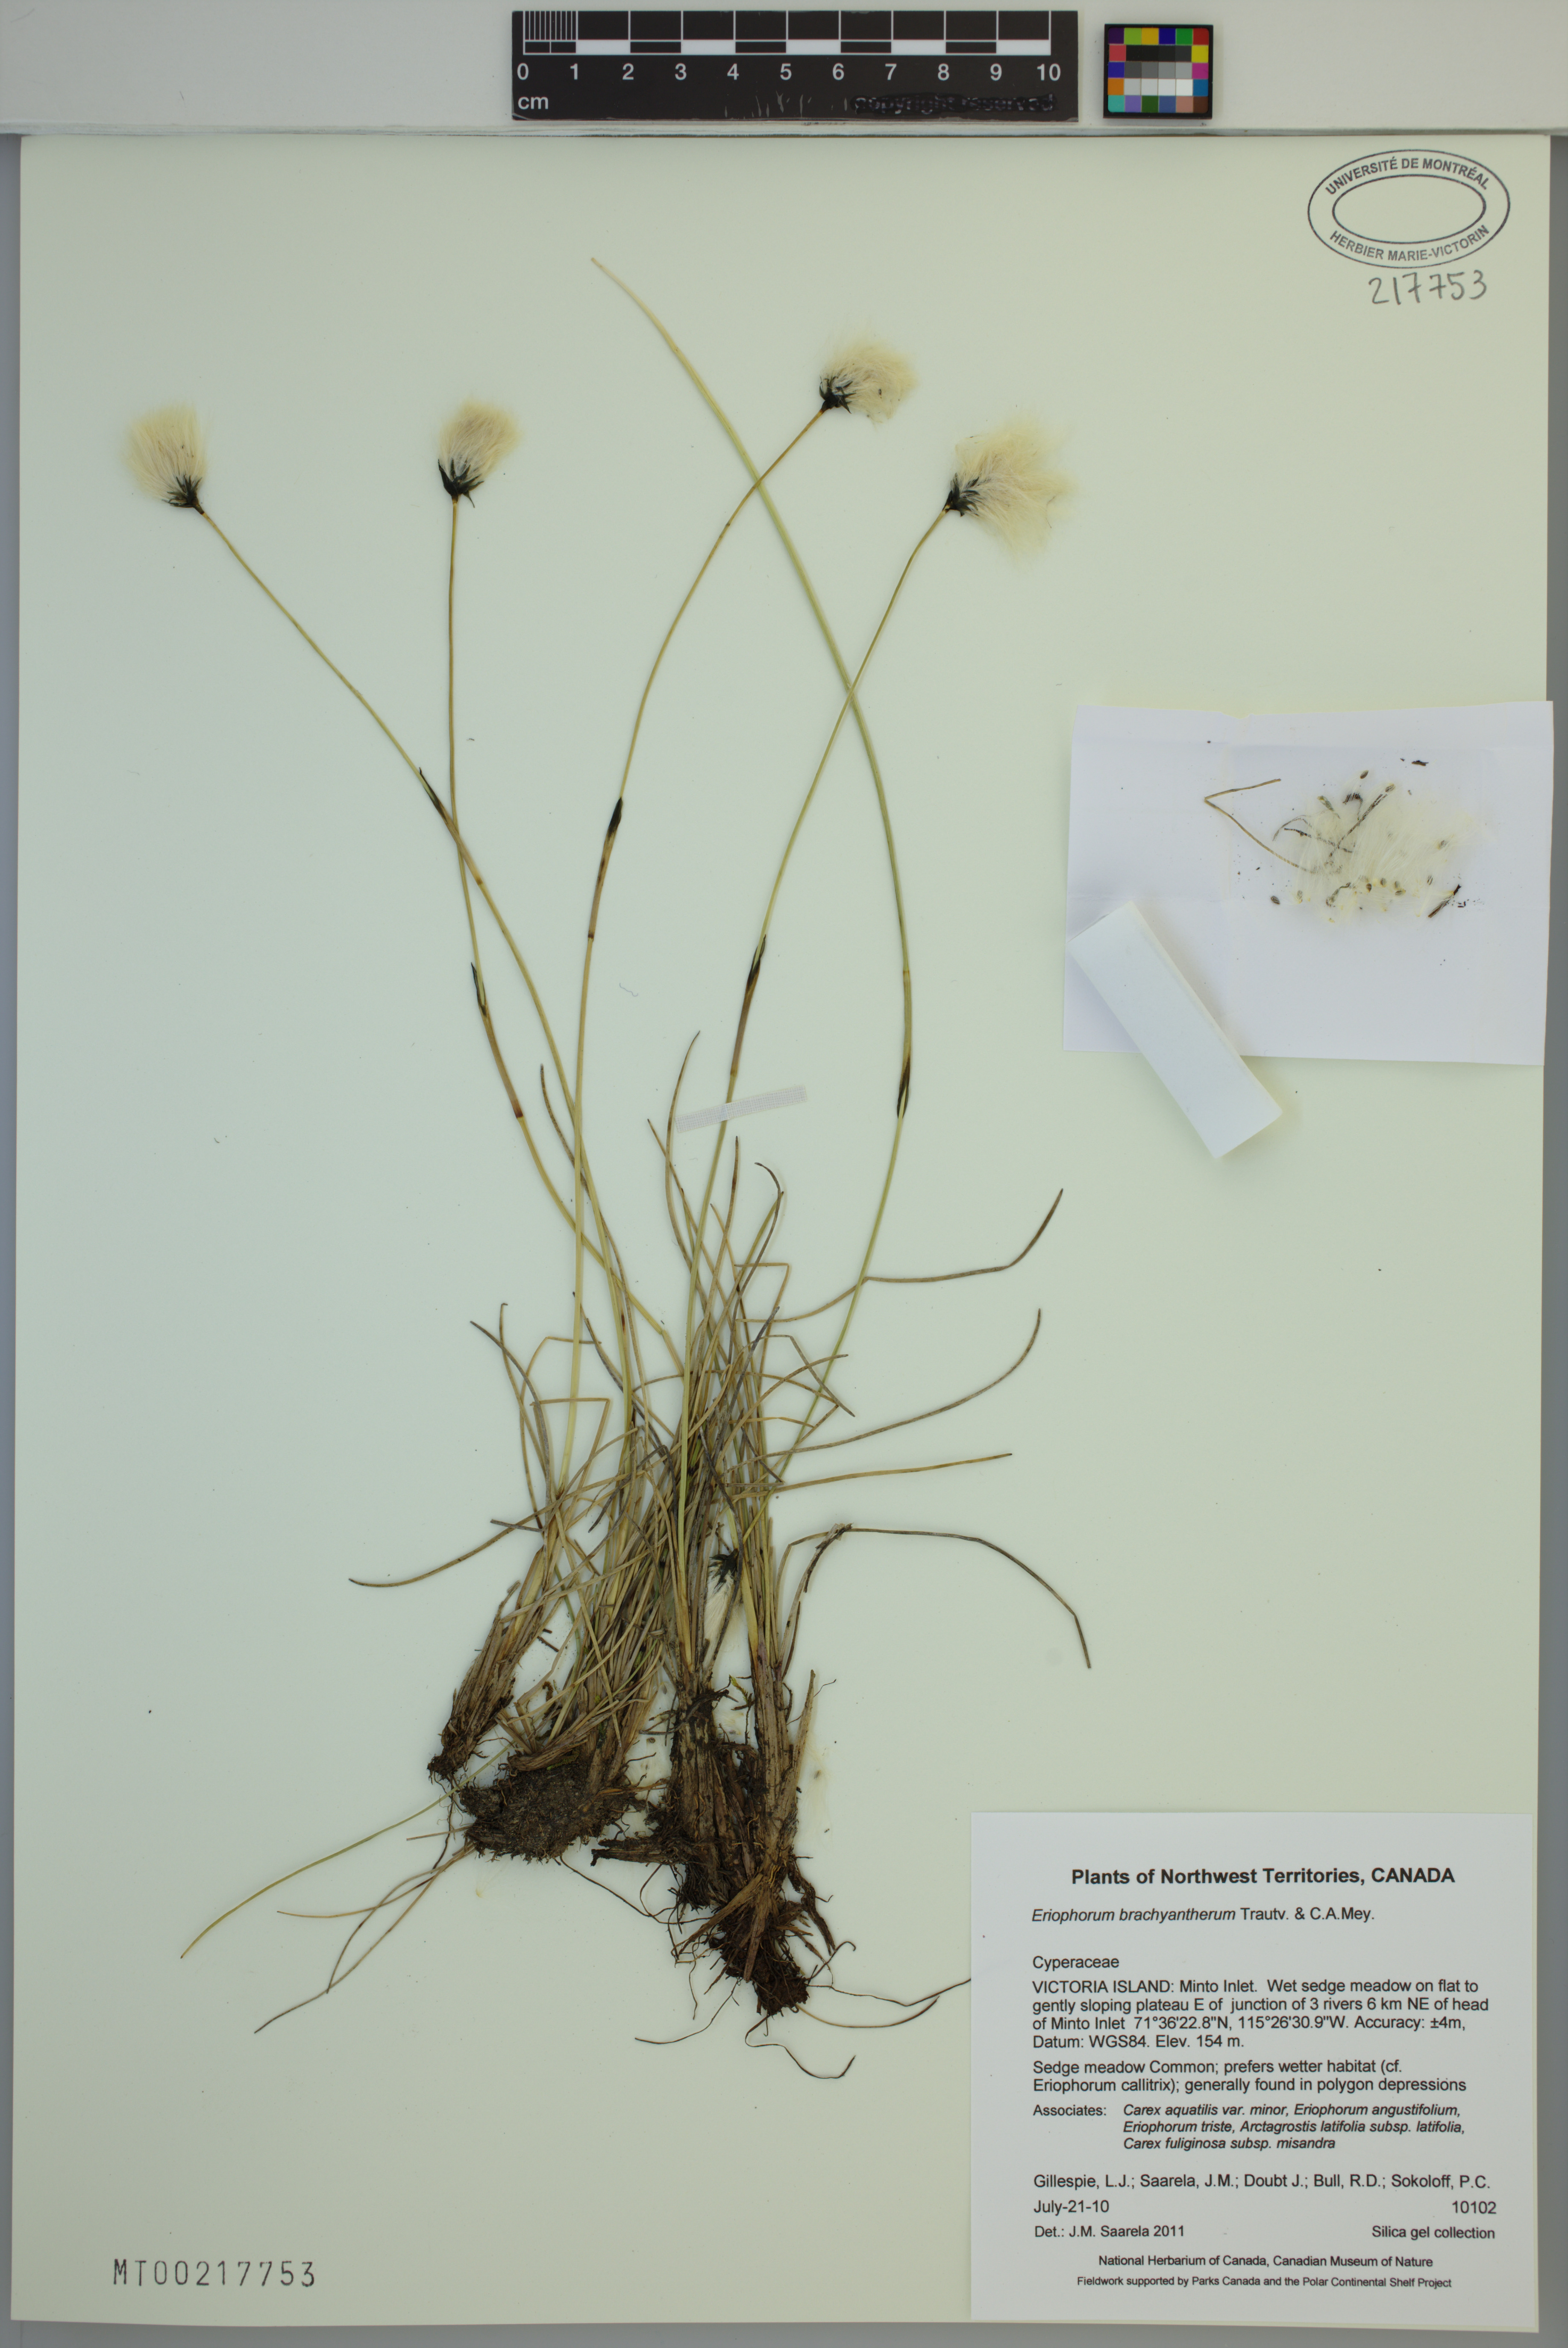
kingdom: Plantae
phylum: Tracheophyta
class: Liliopsida
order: Poales
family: Cyperaceae
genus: Eriophorum
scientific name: Eriophorum brachyantherum
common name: Closed-sheathed cottongrass
